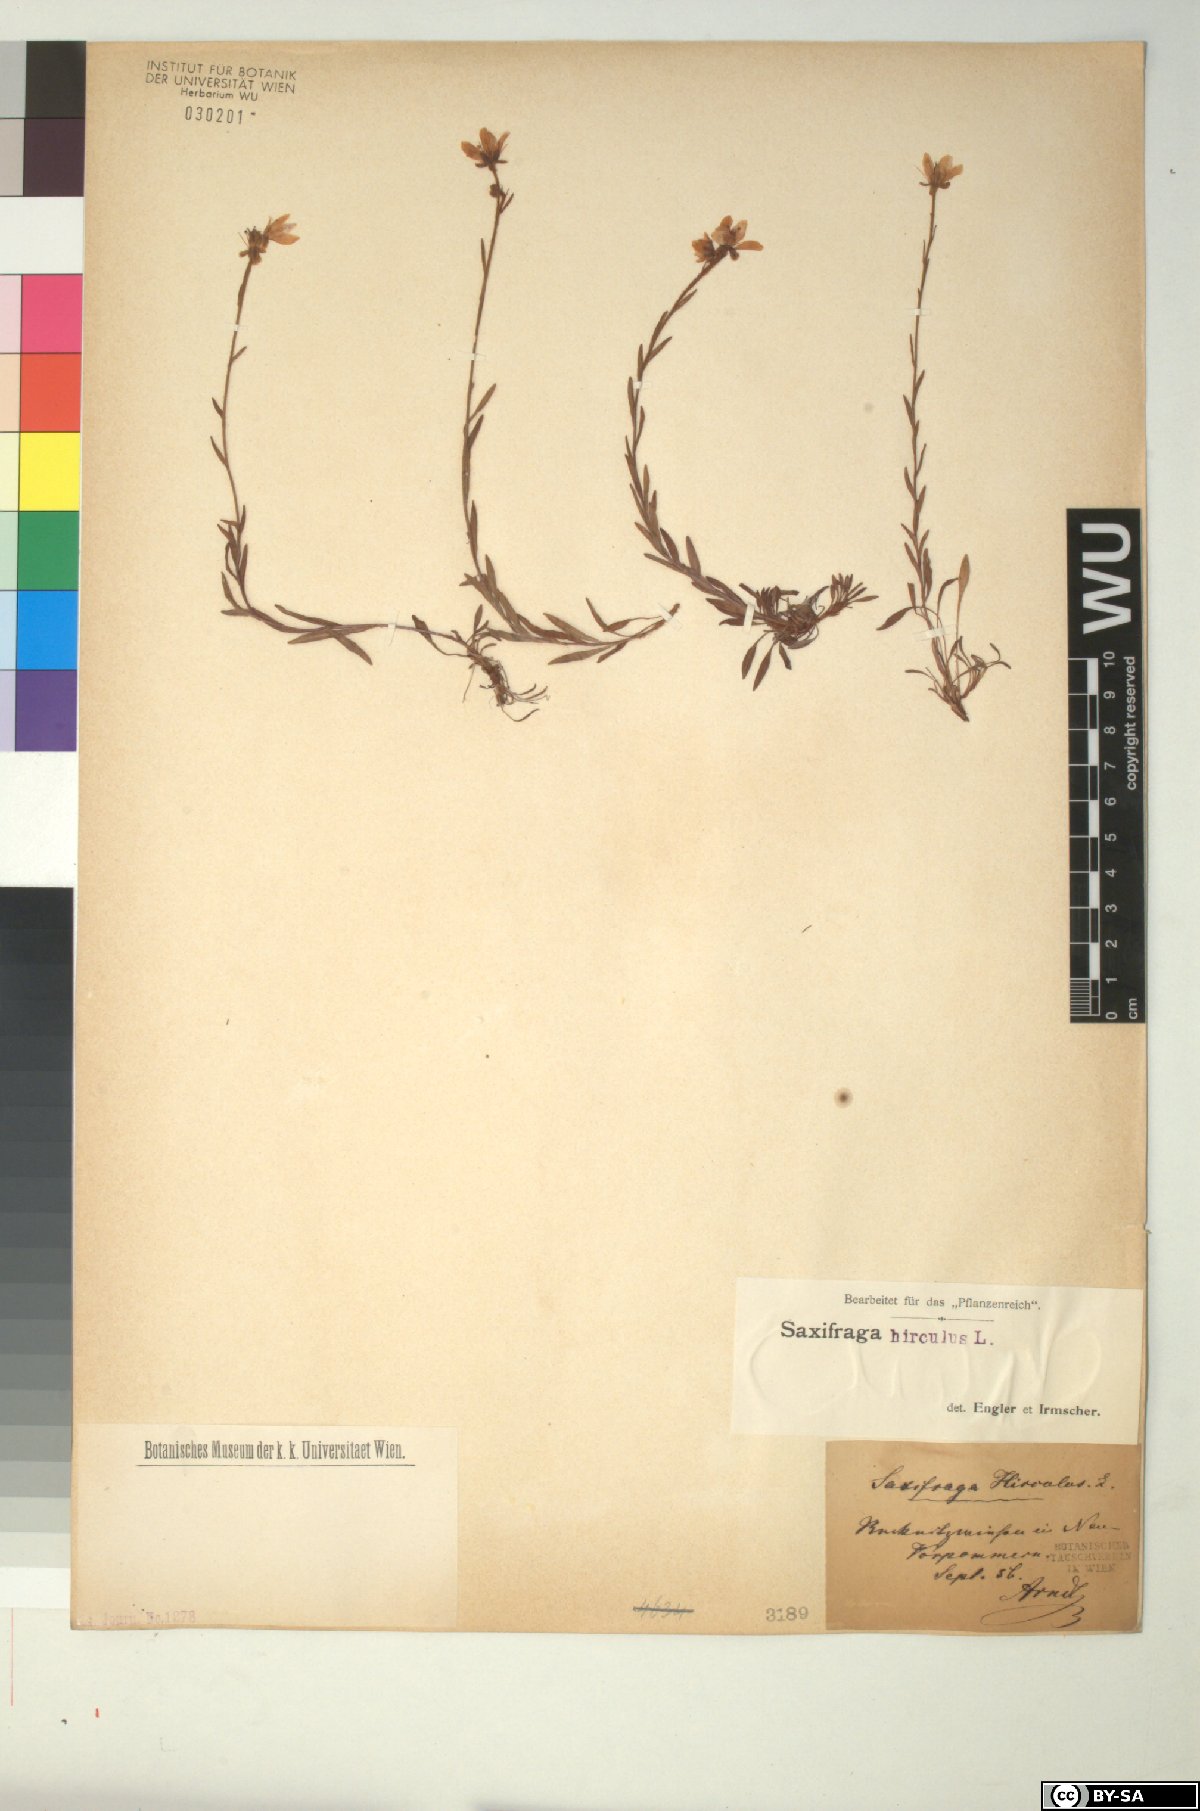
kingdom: Plantae
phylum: Tracheophyta
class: Magnoliopsida
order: Saxifragales
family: Saxifragaceae
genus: Saxifraga
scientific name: Saxifraga hirculus
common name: Yellow marsh saxifrage
